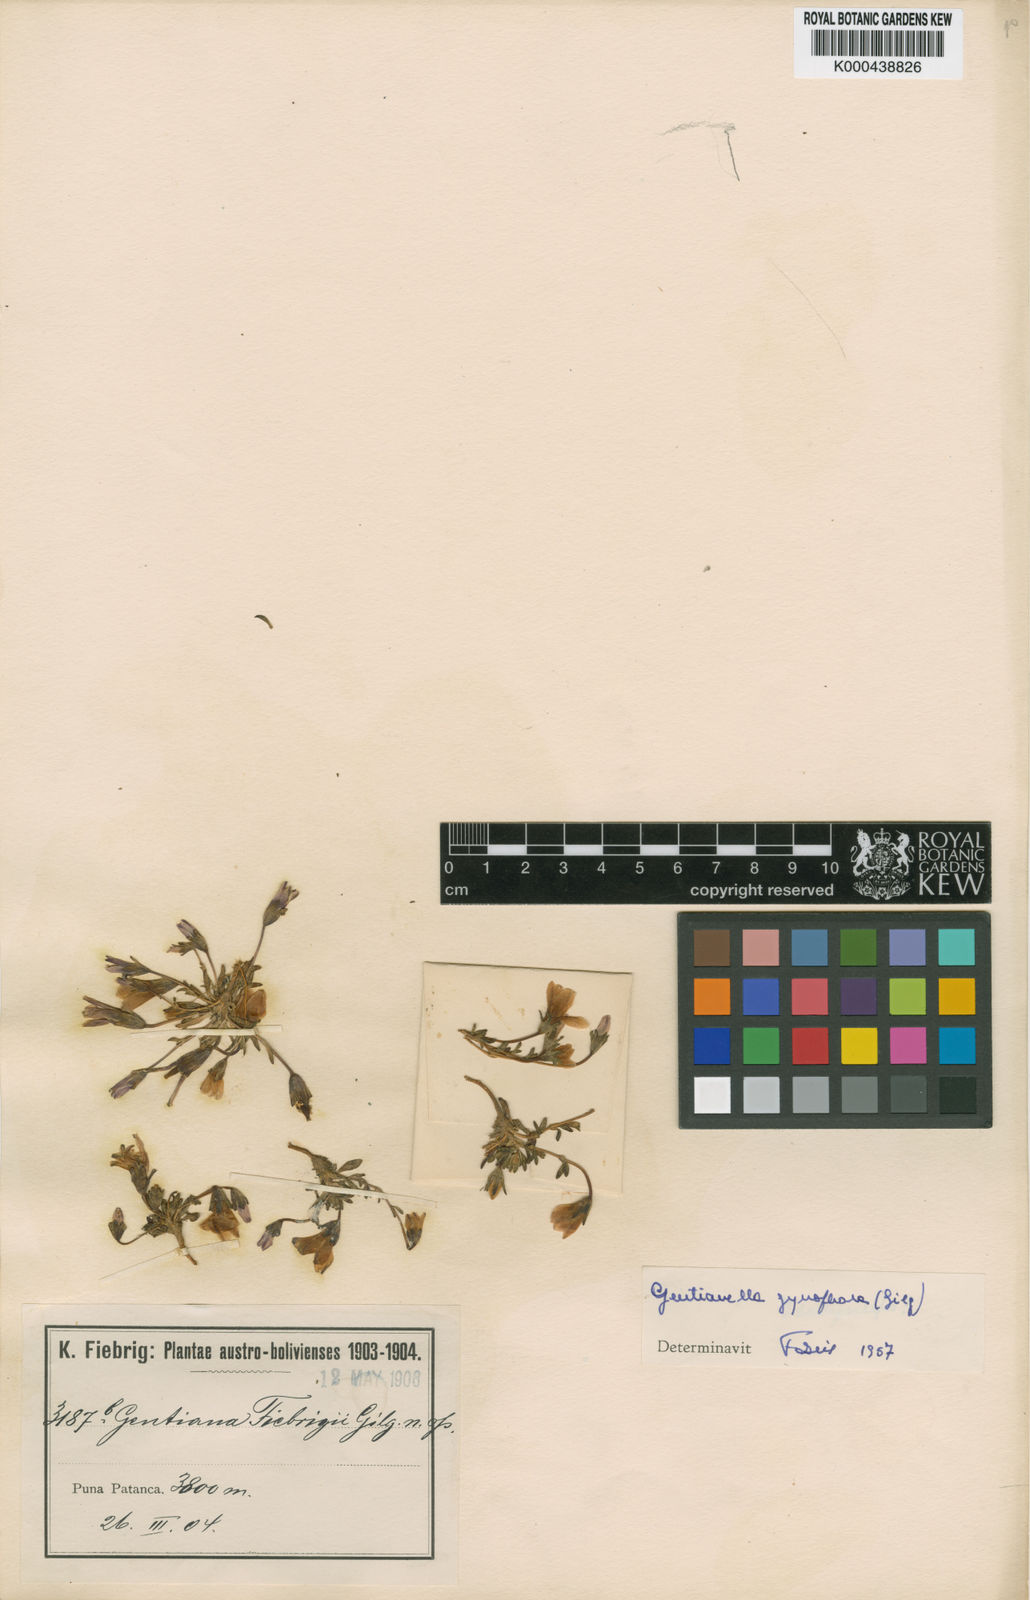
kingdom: Plantae
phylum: Tracheophyta
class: Magnoliopsida
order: Gentianales
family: Gentianaceae
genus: Gentianella
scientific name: Gentianella fiebrigii
